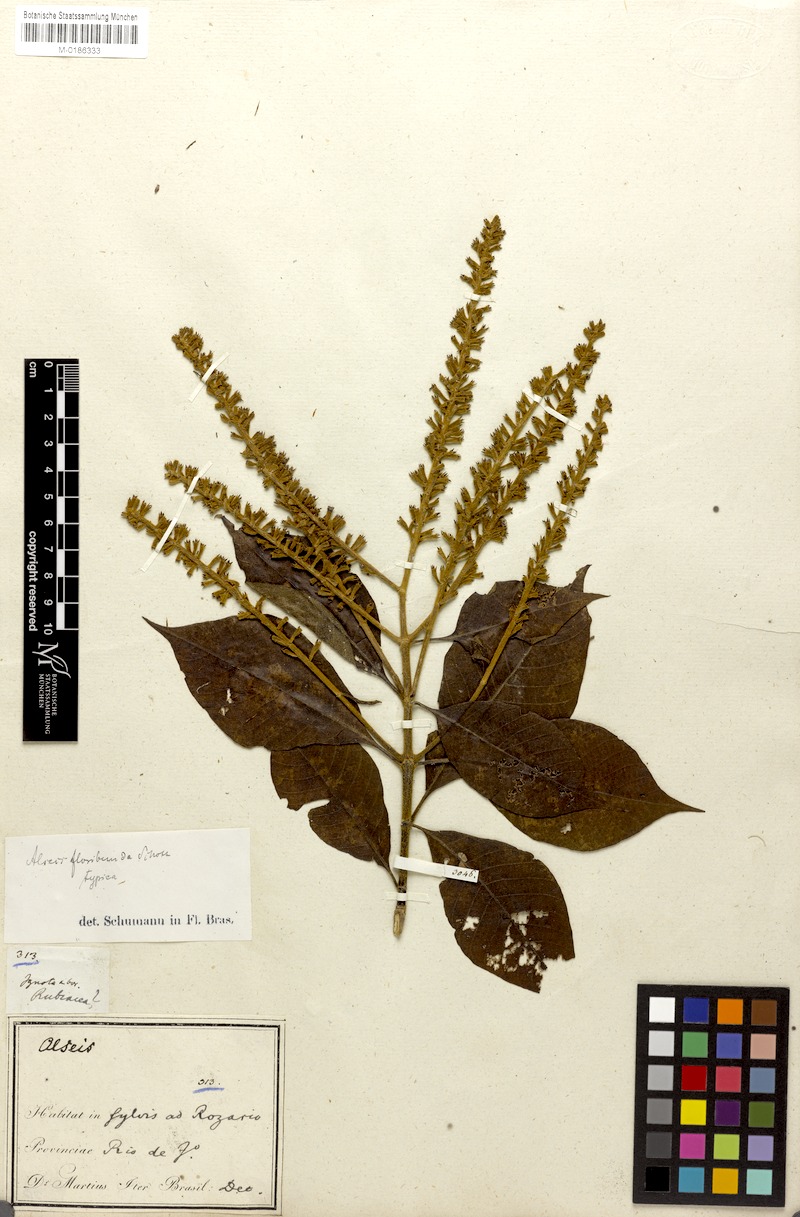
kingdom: Plantae
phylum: Tracheophyta
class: Magnoliopsida
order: Gentianales
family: Rubiaceae
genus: Alseis
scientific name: Alseis floribunda
